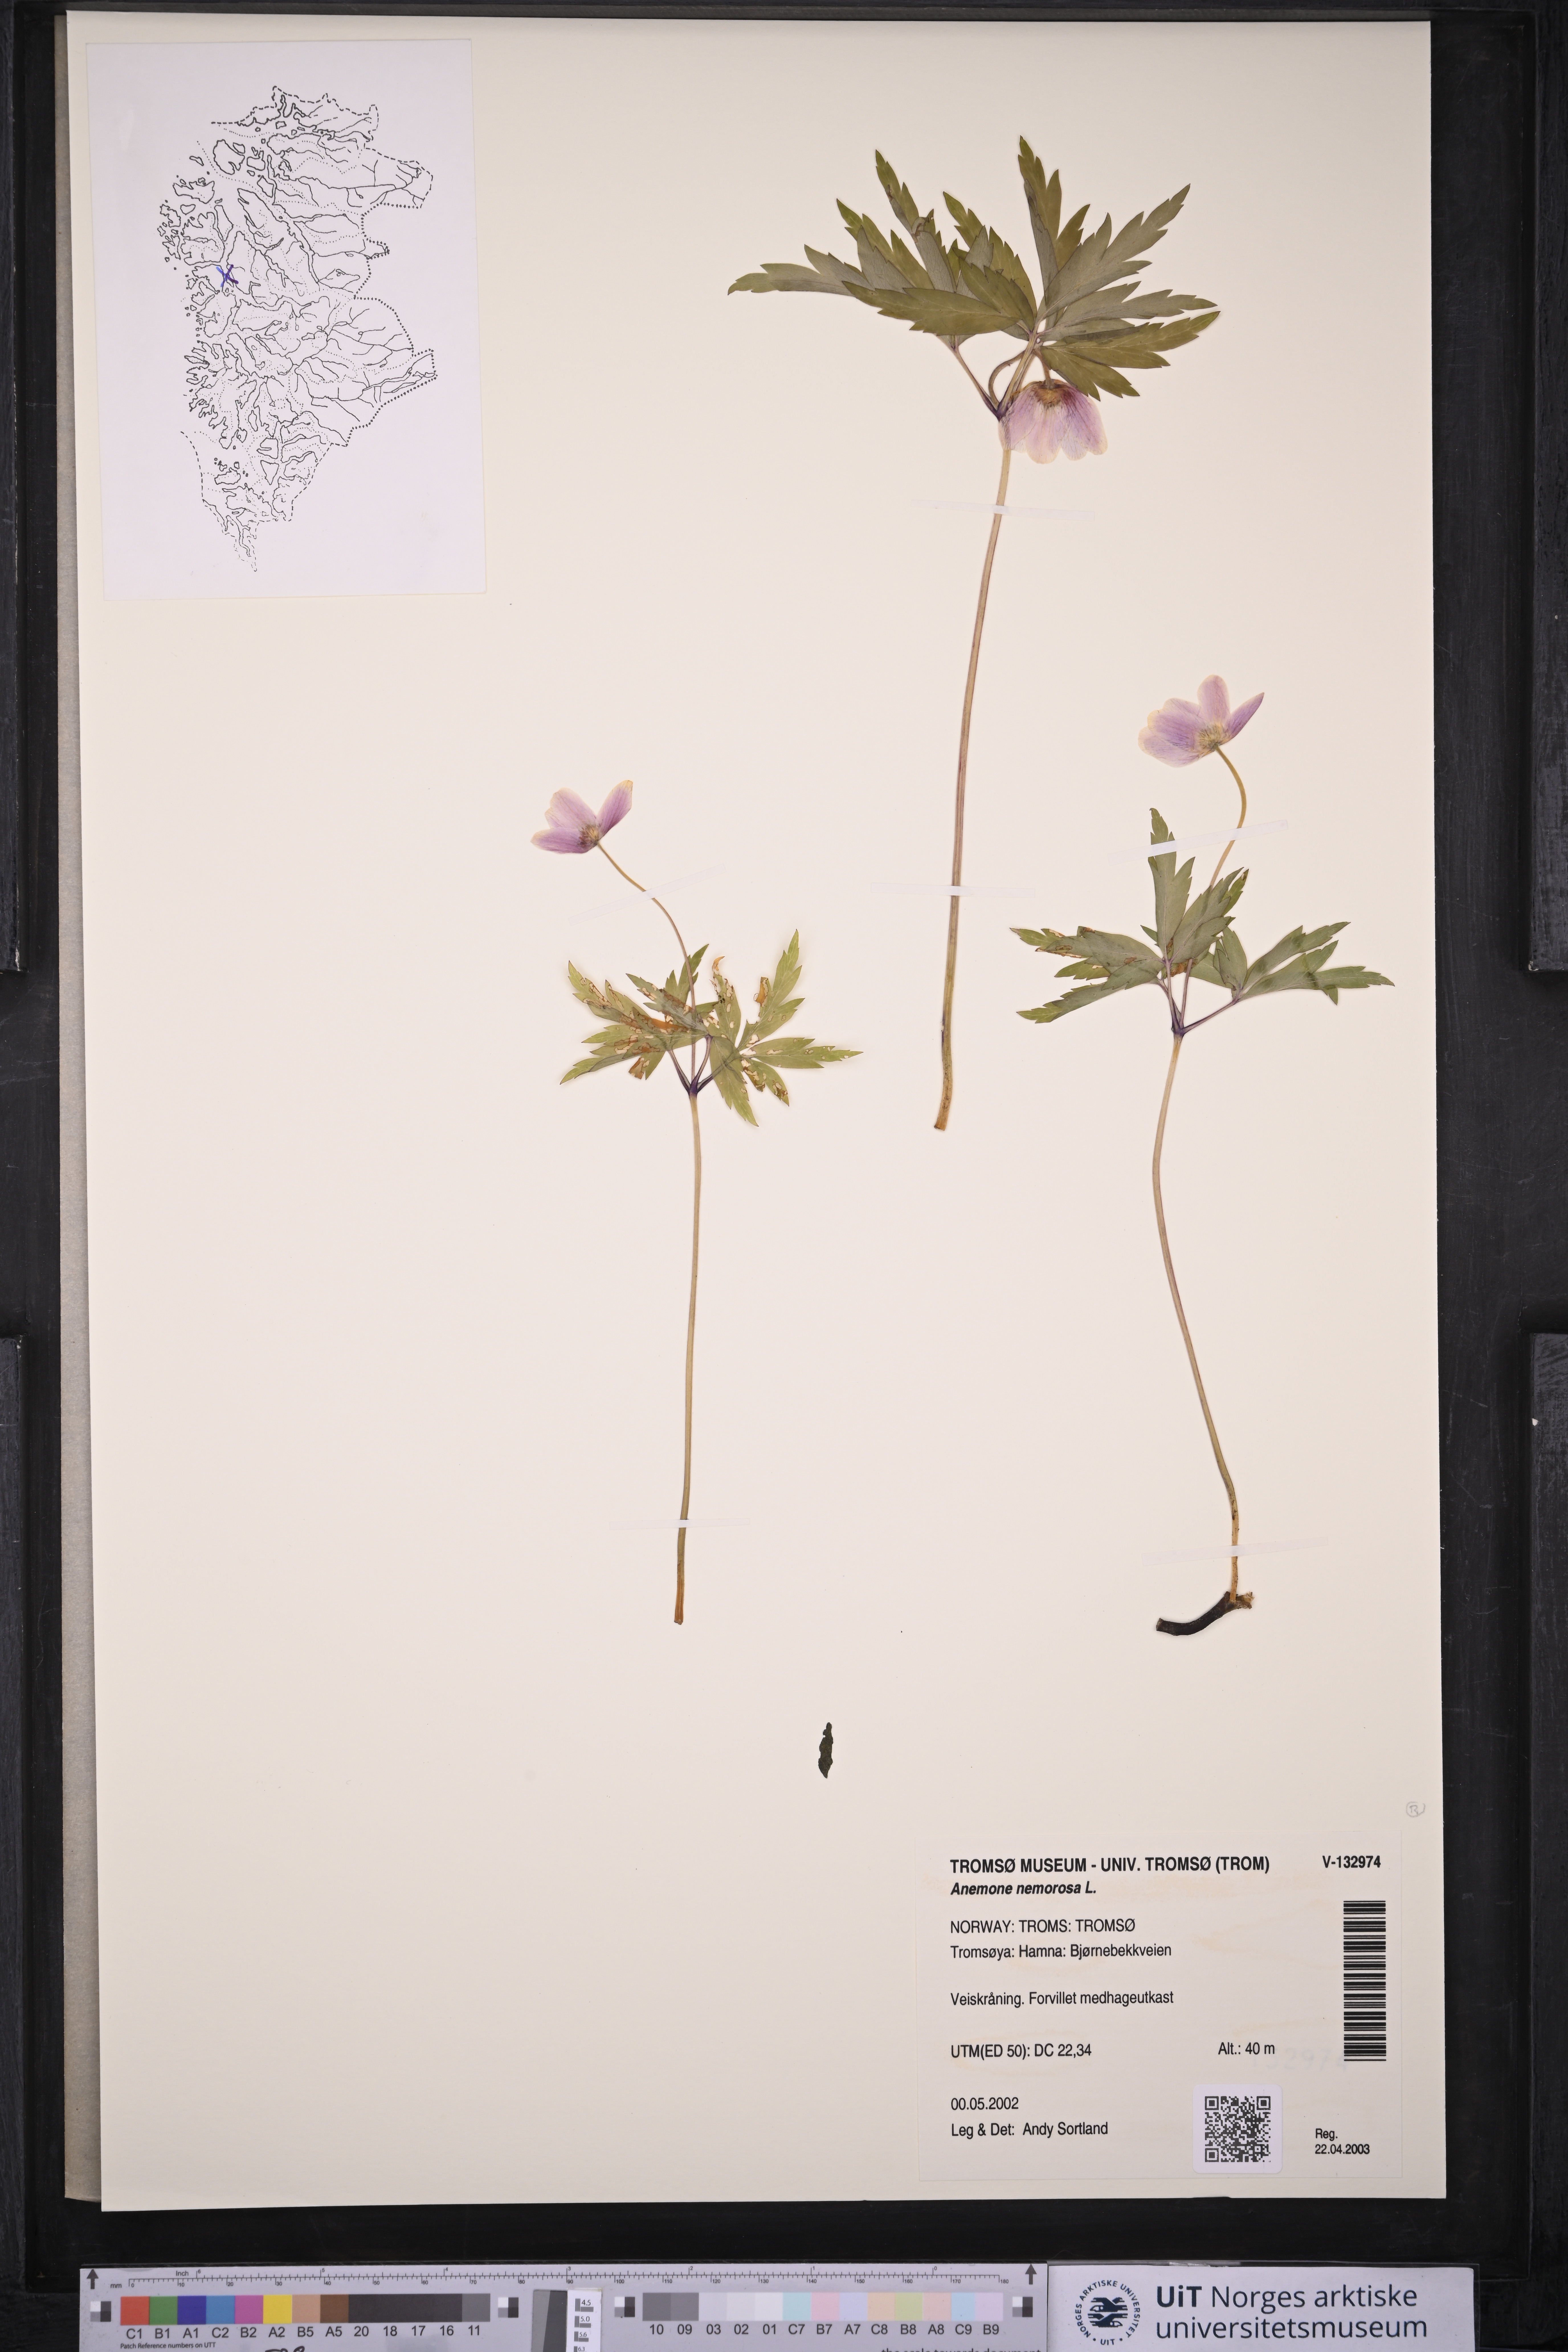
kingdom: Plantae
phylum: Tracheophyta
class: Magnoliopsida
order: Ranunculales
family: Ranunculaceae
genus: Anemone
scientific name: Anemone nemorosa
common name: Wood anemone
